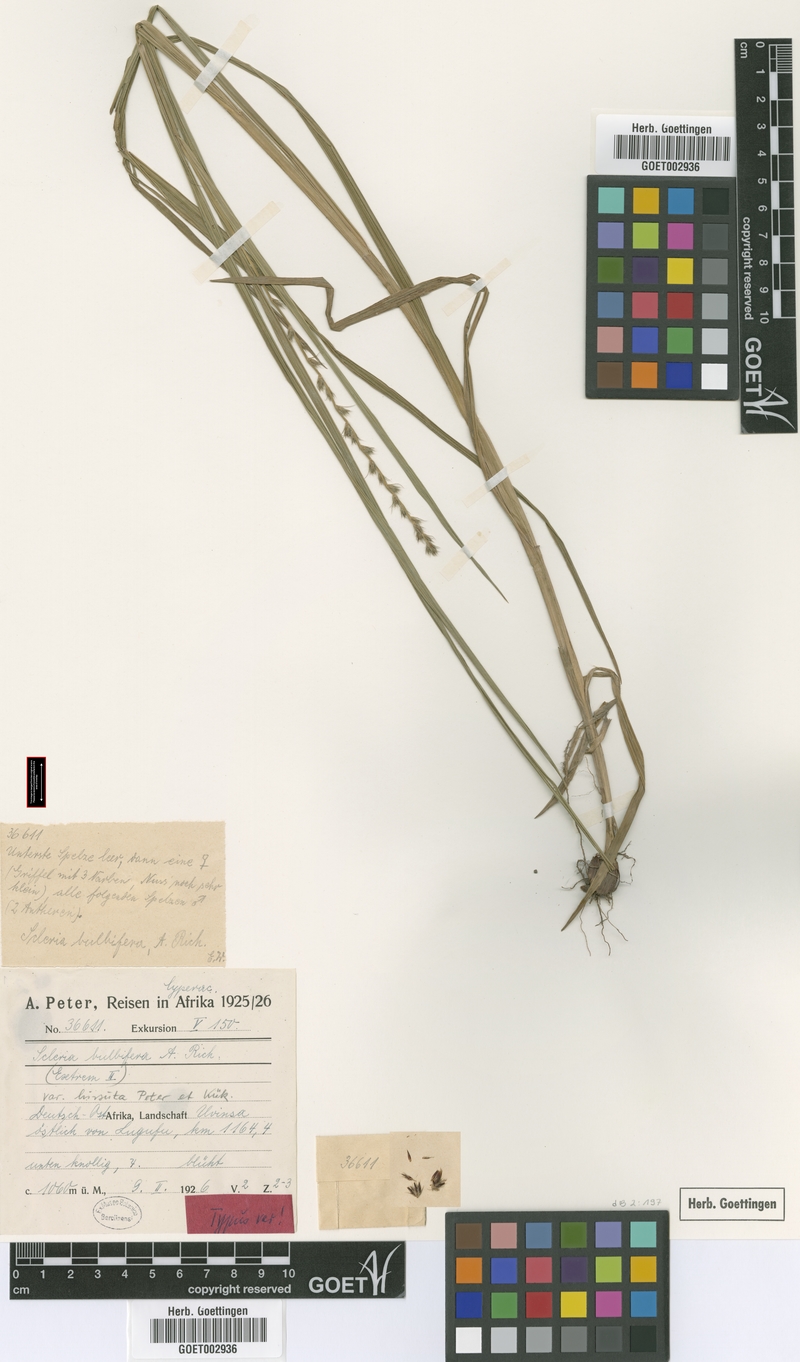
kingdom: Plantae
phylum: Tracheophyta
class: Liliopsida
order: Poales
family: Cyperaceae
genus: Scleria
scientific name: Scleria bulbifera
